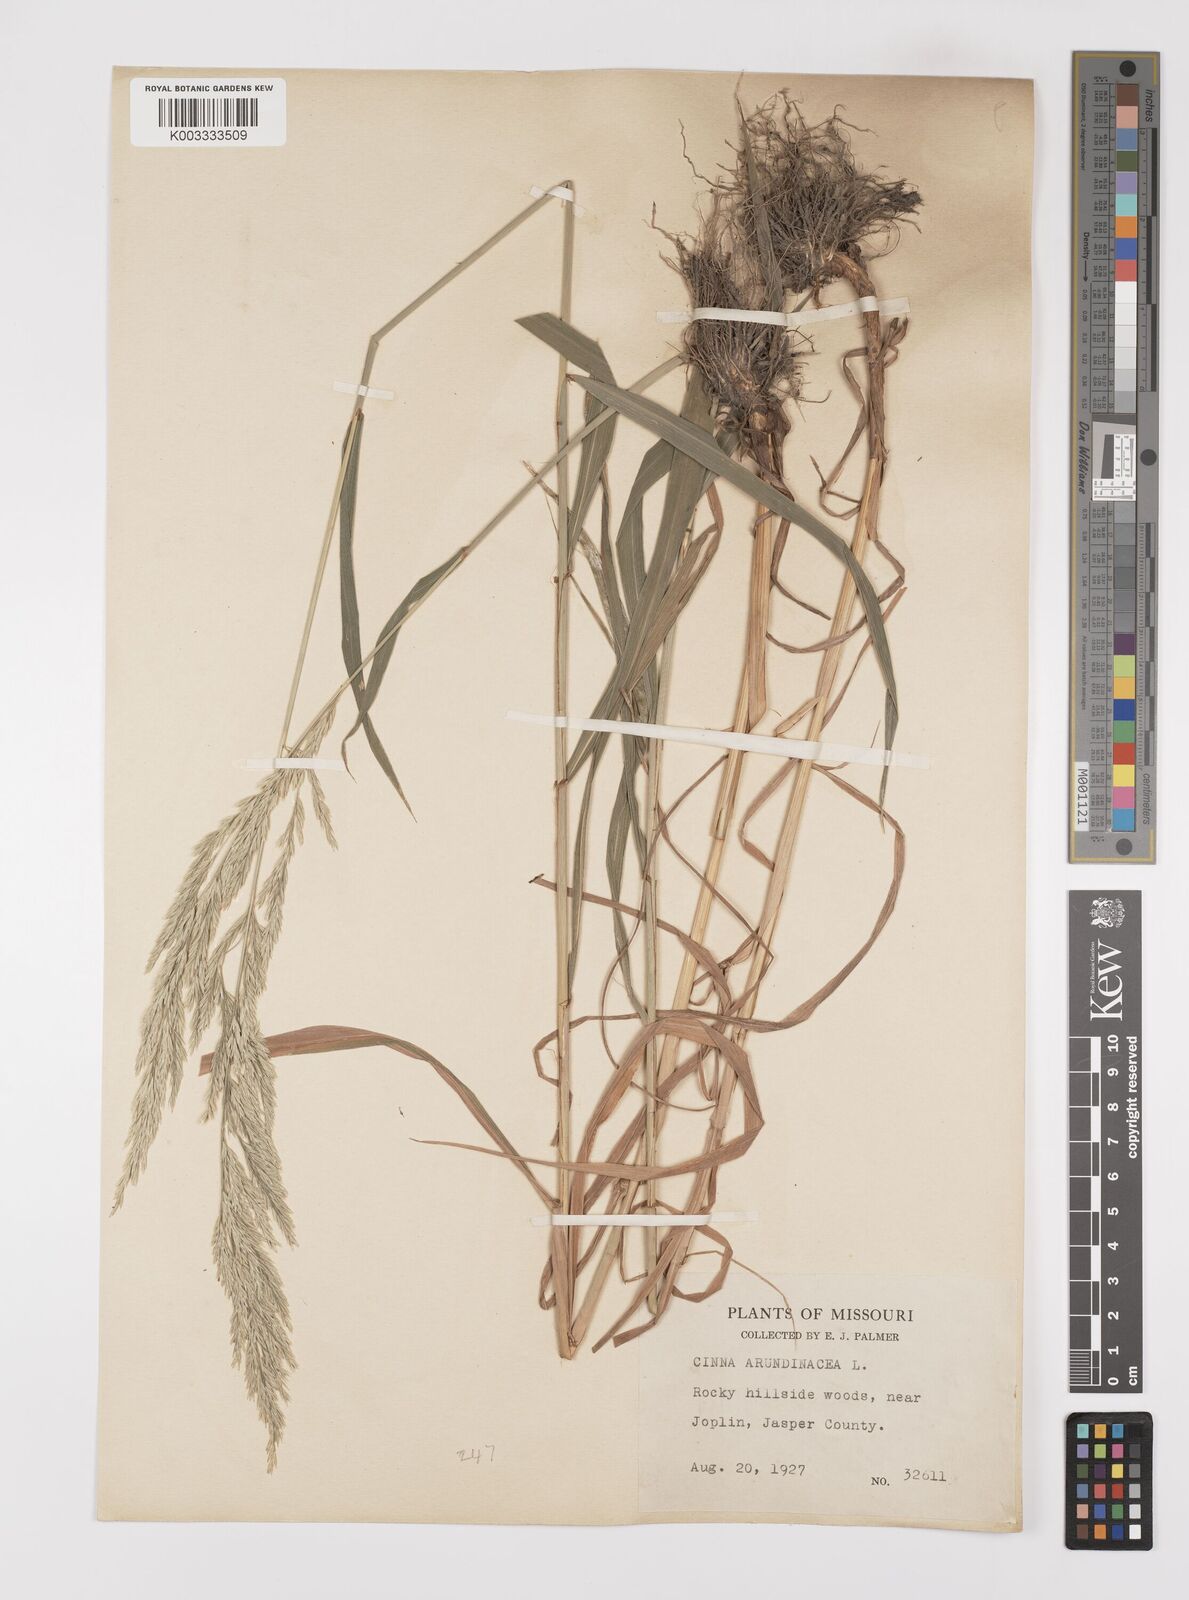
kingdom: Plantae
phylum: Tracheophyta
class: Liliopsida
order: Poales
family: Poaceae
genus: Cinna
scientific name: Cinna
